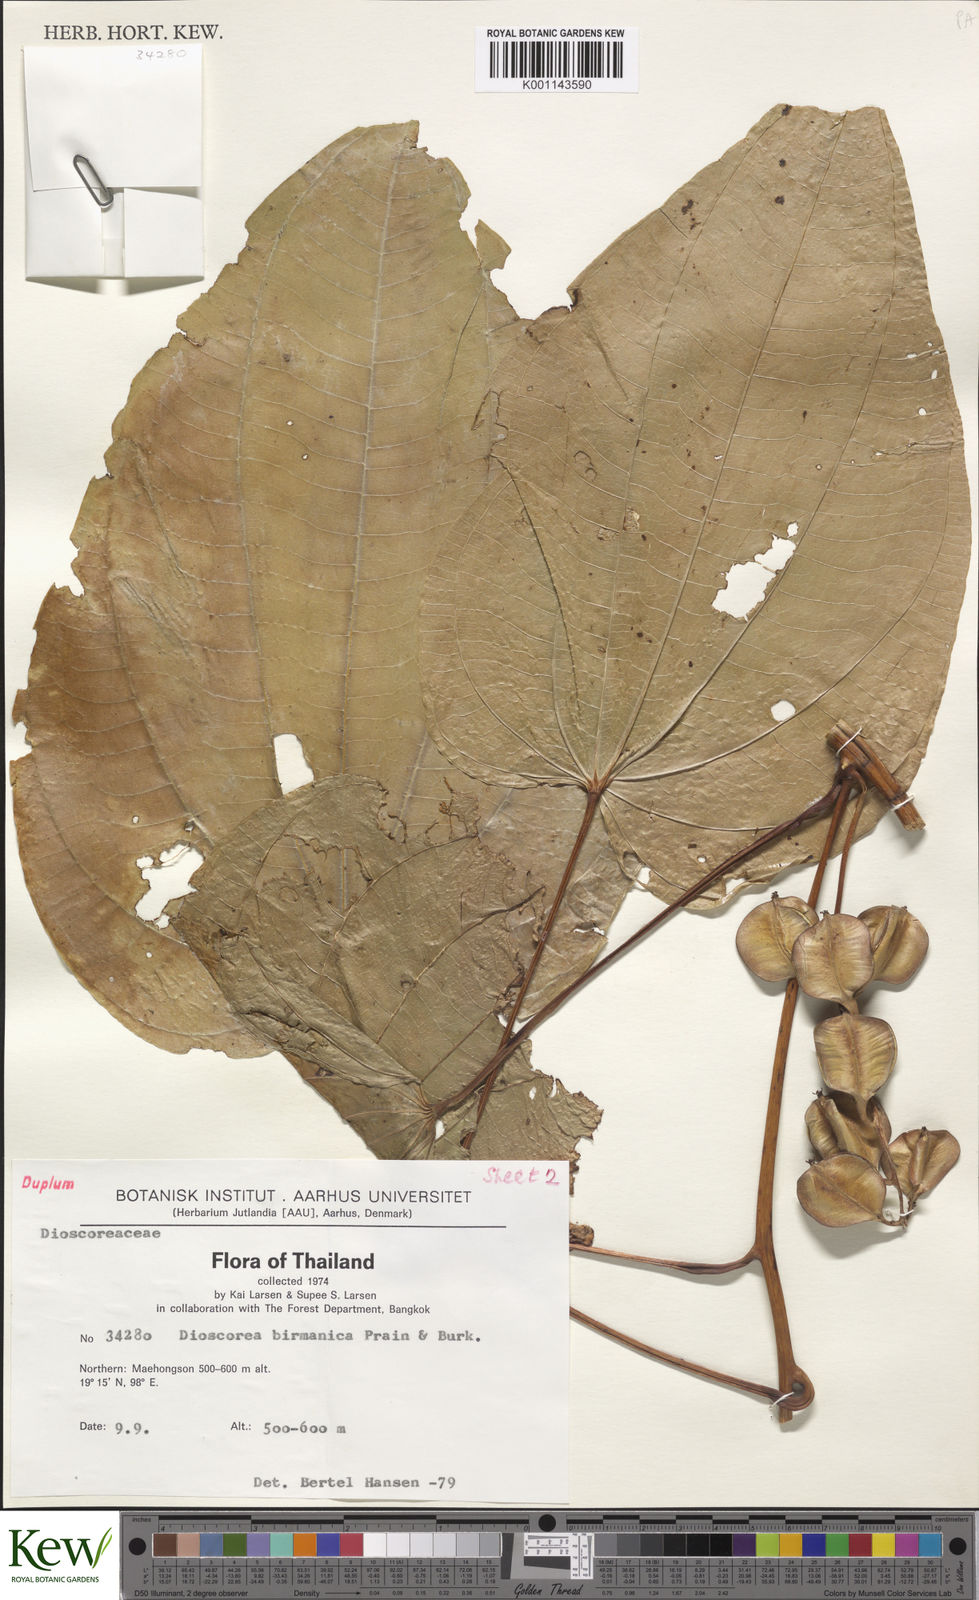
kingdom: Plantae
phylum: Tracheophyta
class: Liliopsida
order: Dioscoreales
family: Dioscoreaceae
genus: Dioscorea
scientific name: Dioscorea birmanica
